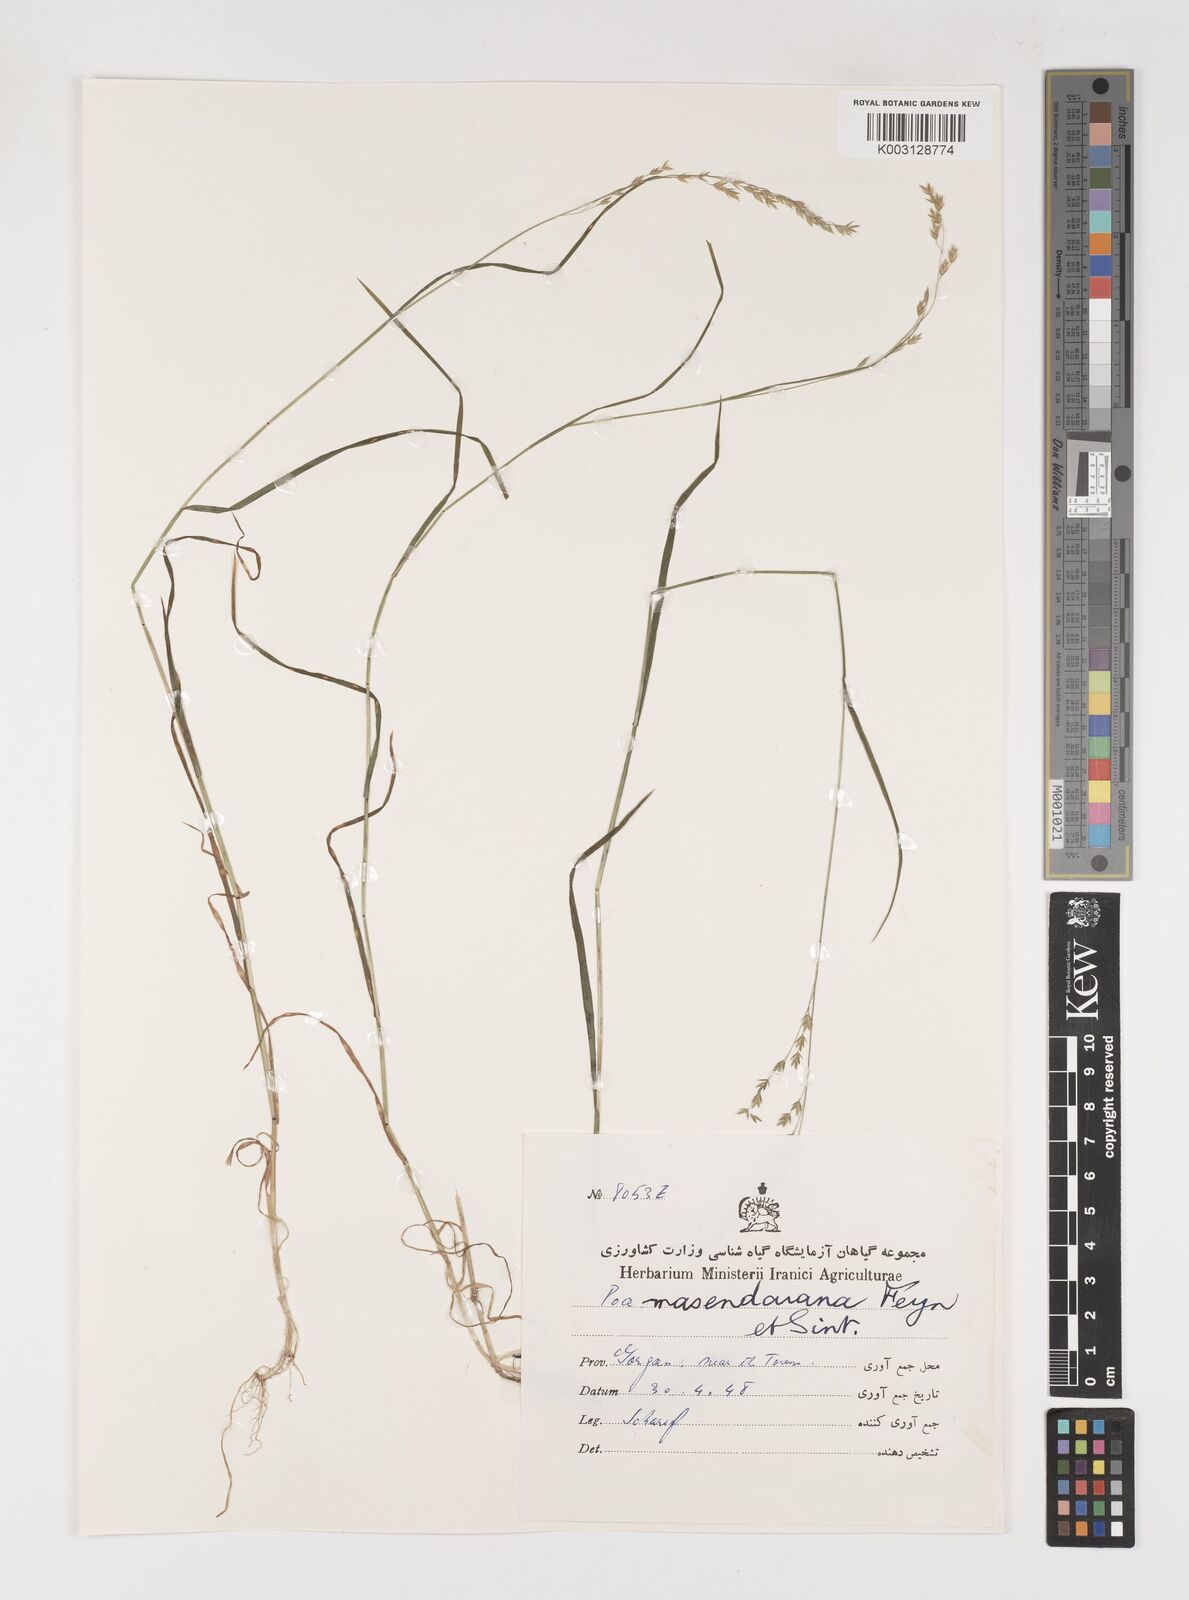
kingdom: Plantae
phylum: Tracheophyta
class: Liliopsida
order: Poales
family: Poaceae
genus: Poa
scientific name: Poa masenderana
